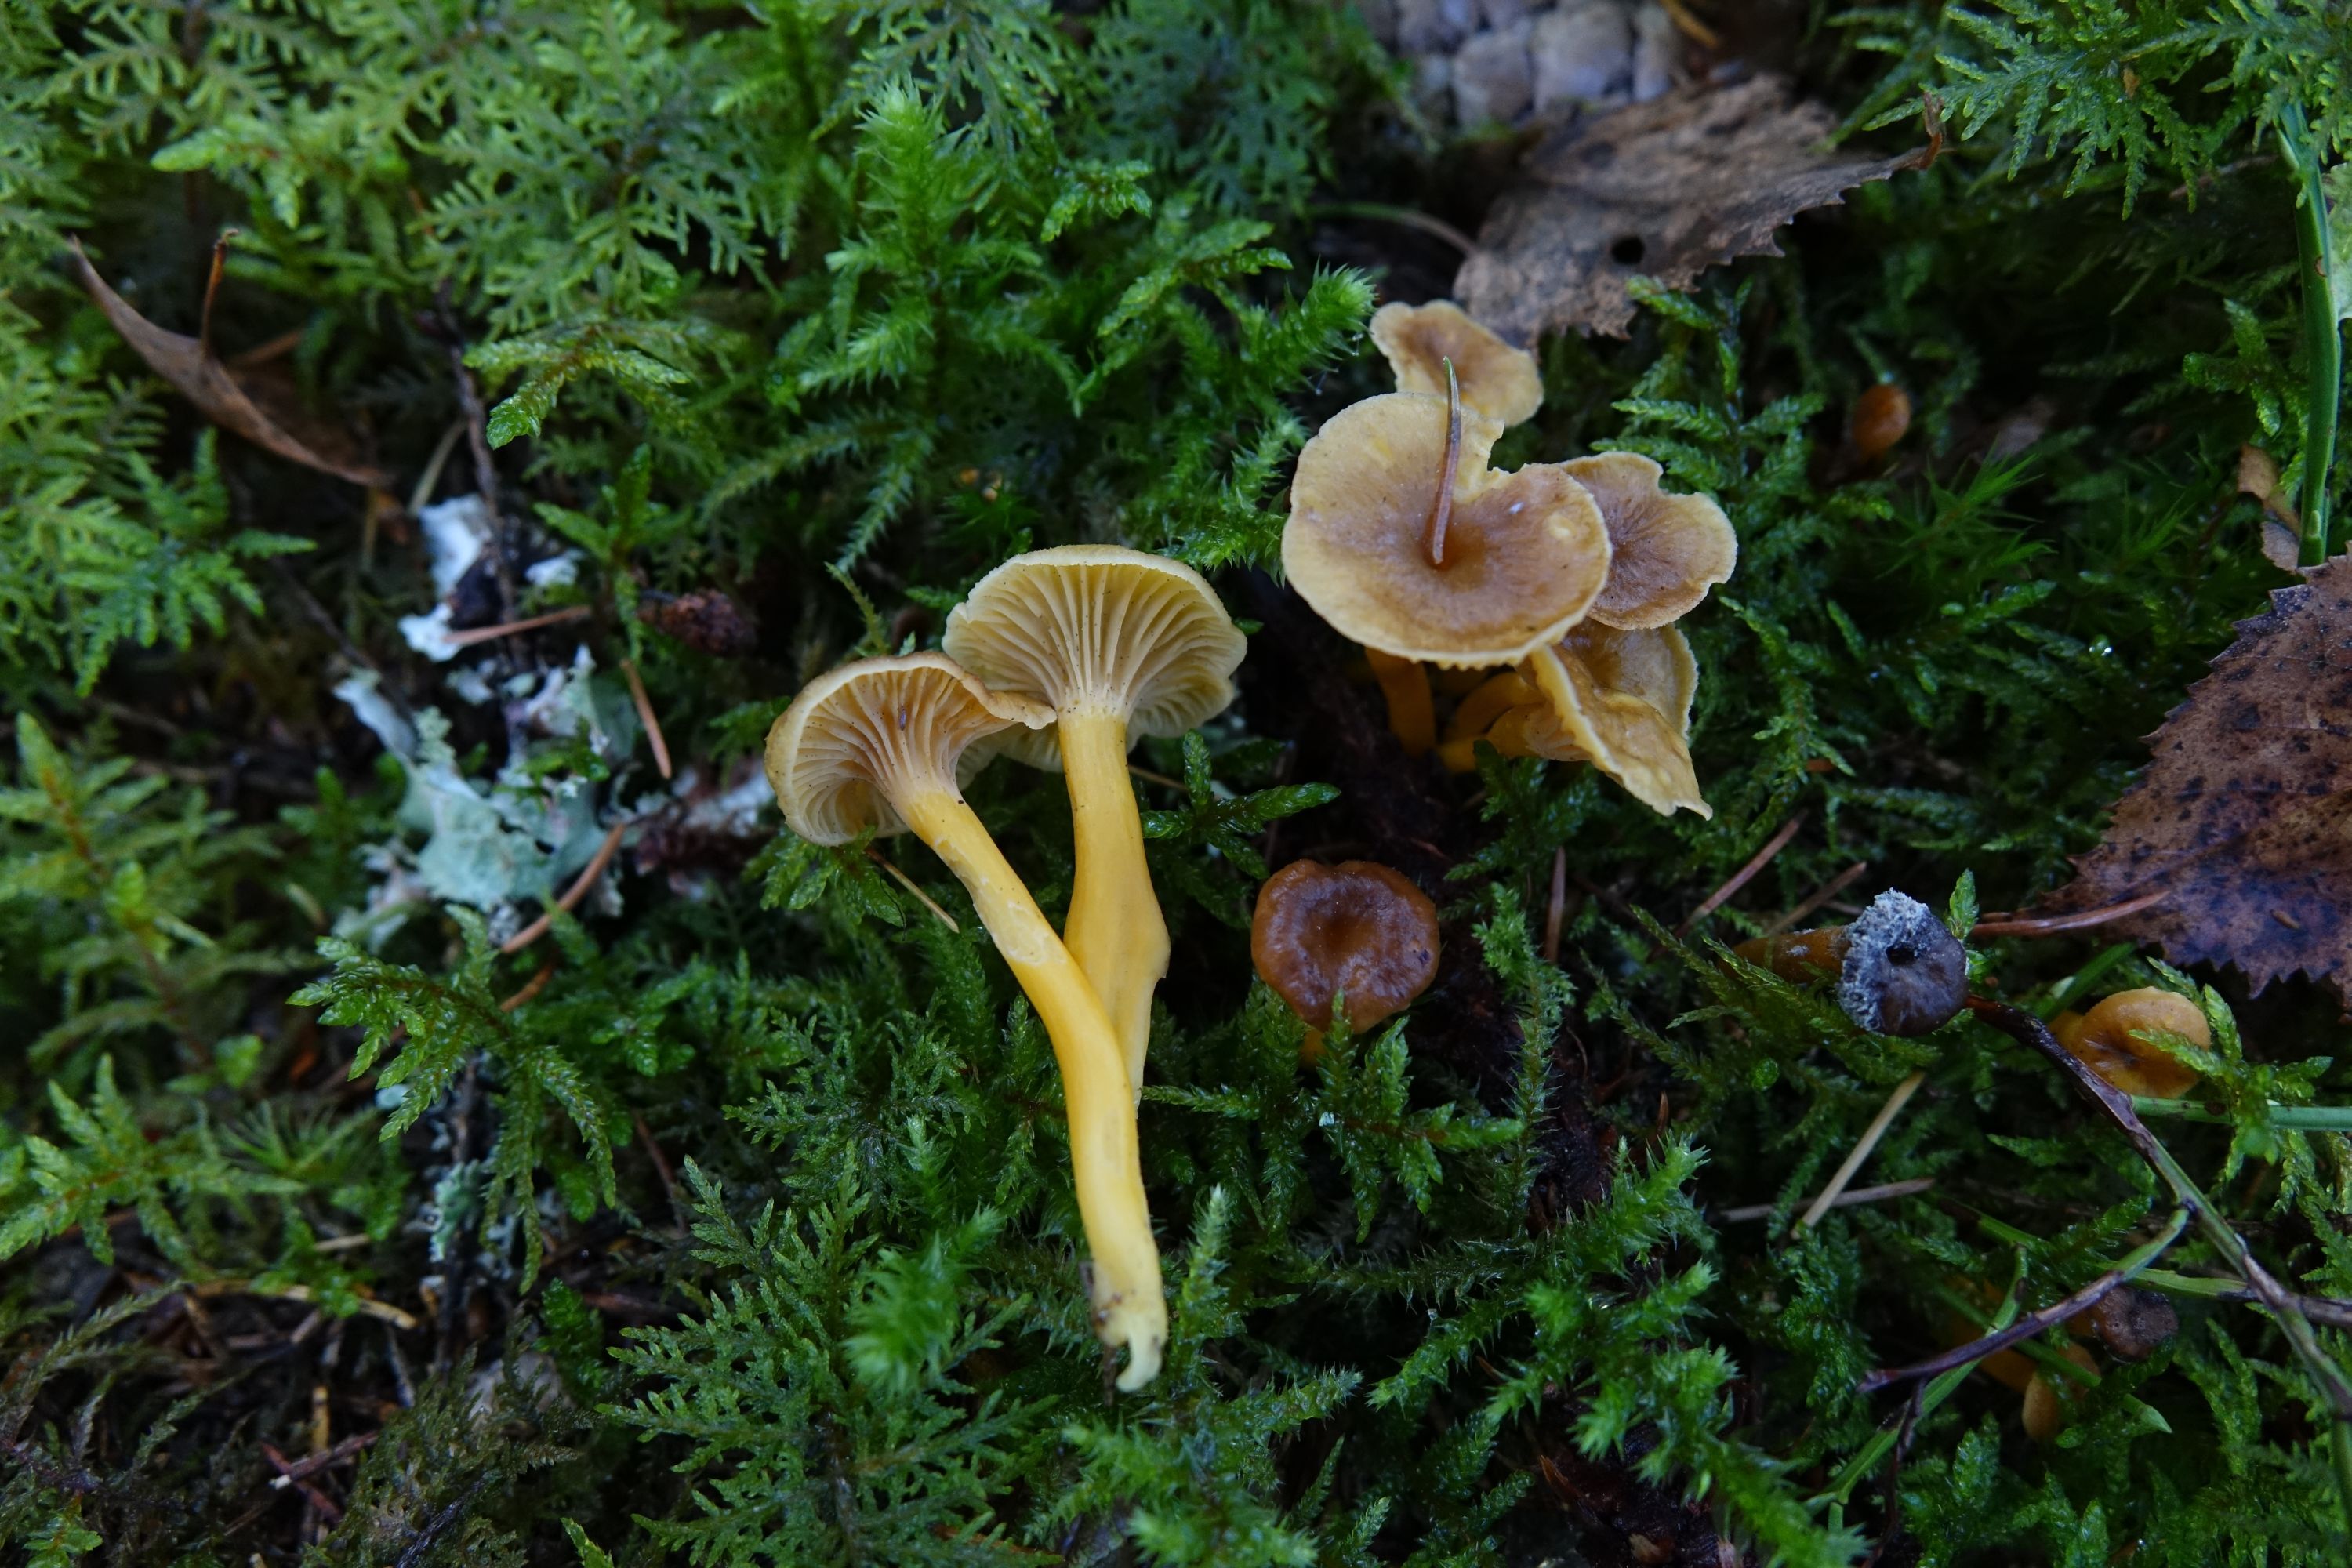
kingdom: Fungi
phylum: Basidiomycota
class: Agaricomycetes
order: Cantharellales
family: Hydnaceae
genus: Craterellus
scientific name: Craterellus tubaeformis
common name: Yellowfoot
